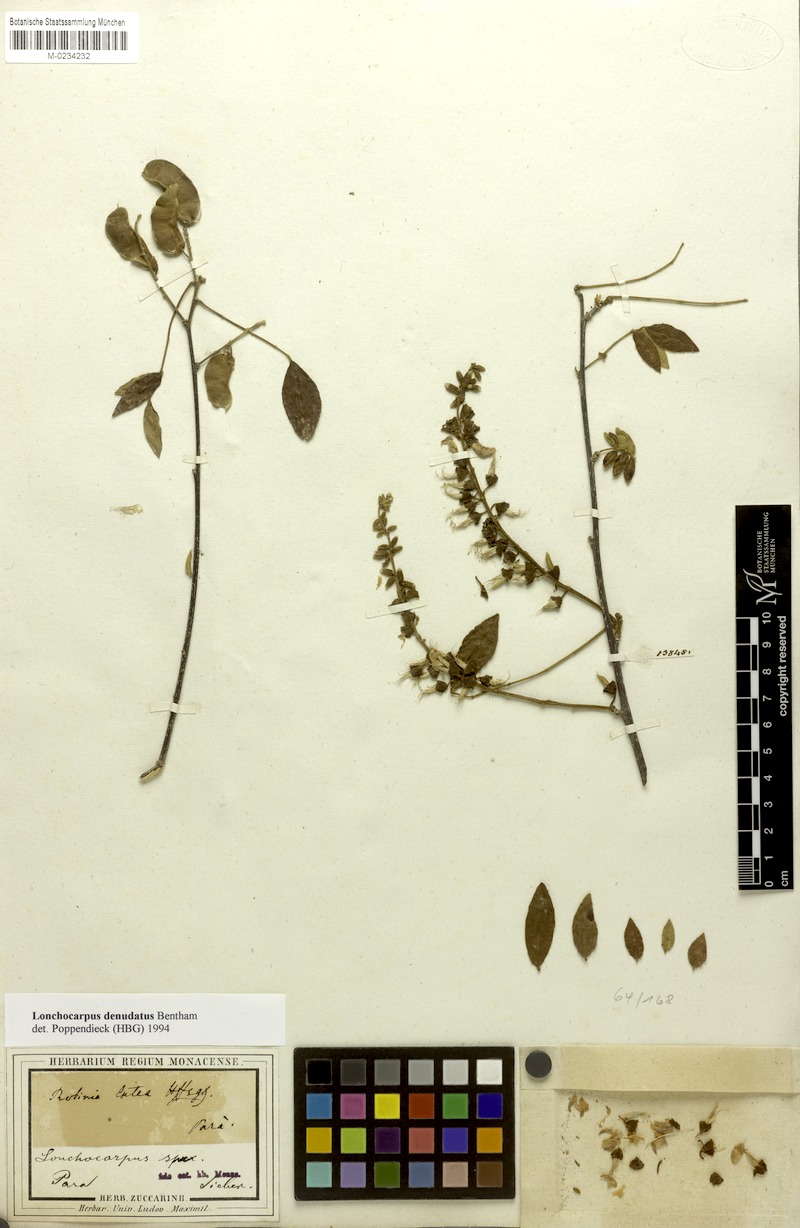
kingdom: Plantae
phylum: Tracheophyta
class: Magnoliopsida
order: Fabales
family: Fabaceae
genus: Muellera
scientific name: Muellera denudata
